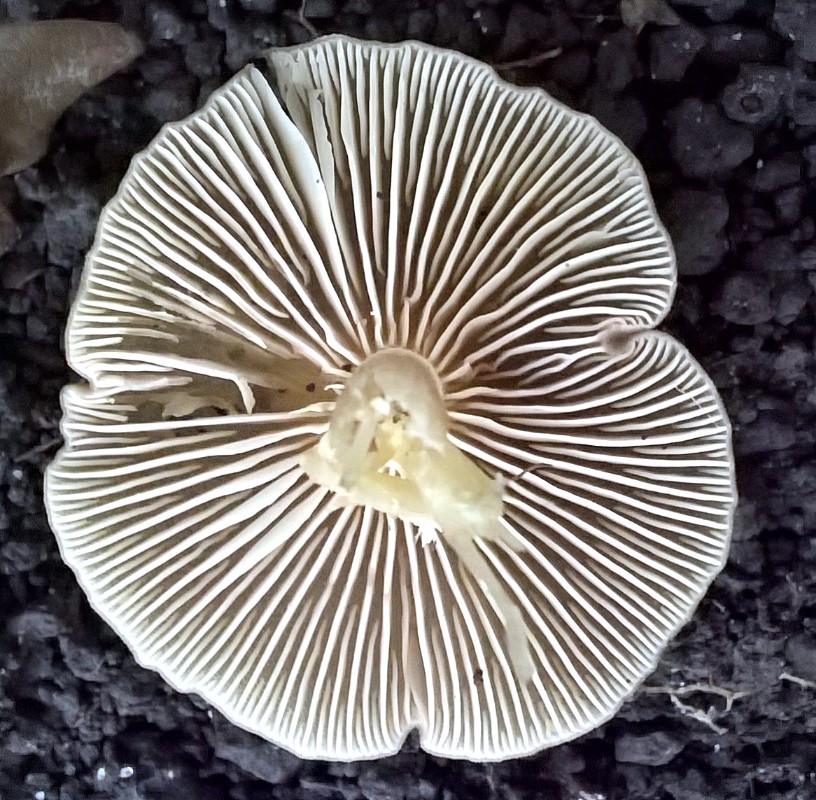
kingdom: Fungi
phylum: Basidiomycota
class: Agaricomycetes
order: Agaricales
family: Entolomataceae
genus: Entoloma
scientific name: Entoloma
